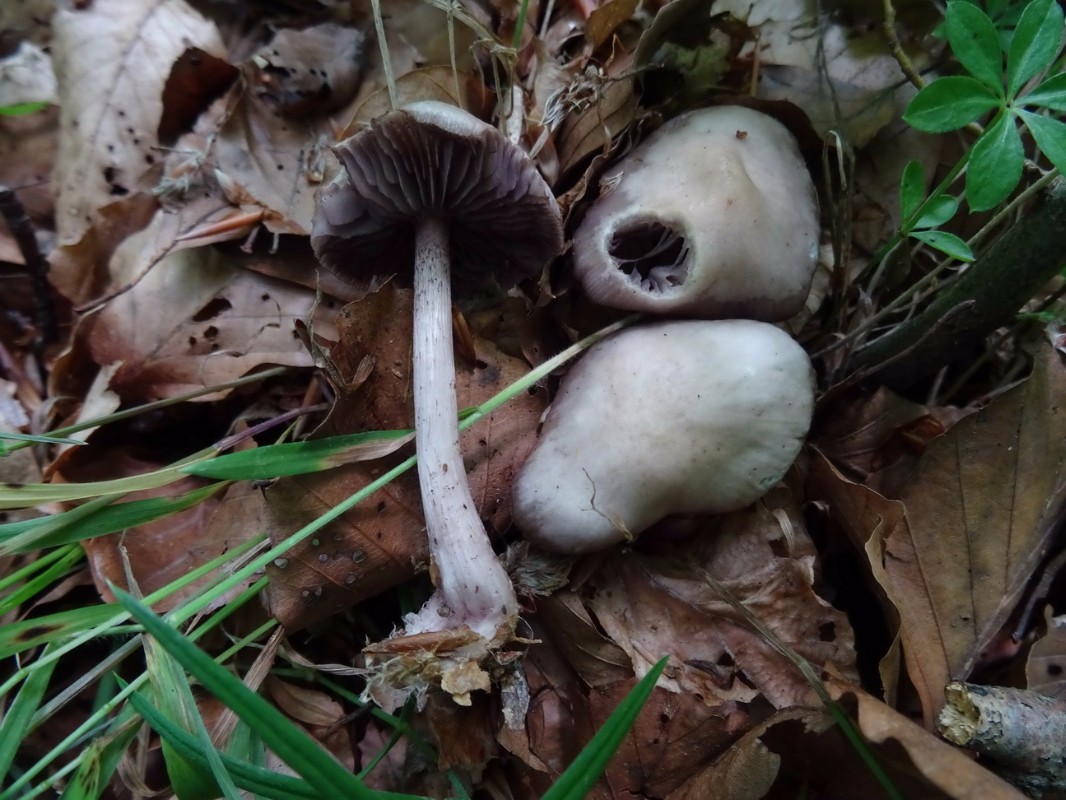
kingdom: Fungi
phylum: Basidiomycota
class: Agaricomycetes
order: Agaricales
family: Mycenaceae
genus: Mycena
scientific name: Mycena pelianthina
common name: mørkbladet huesvamp
